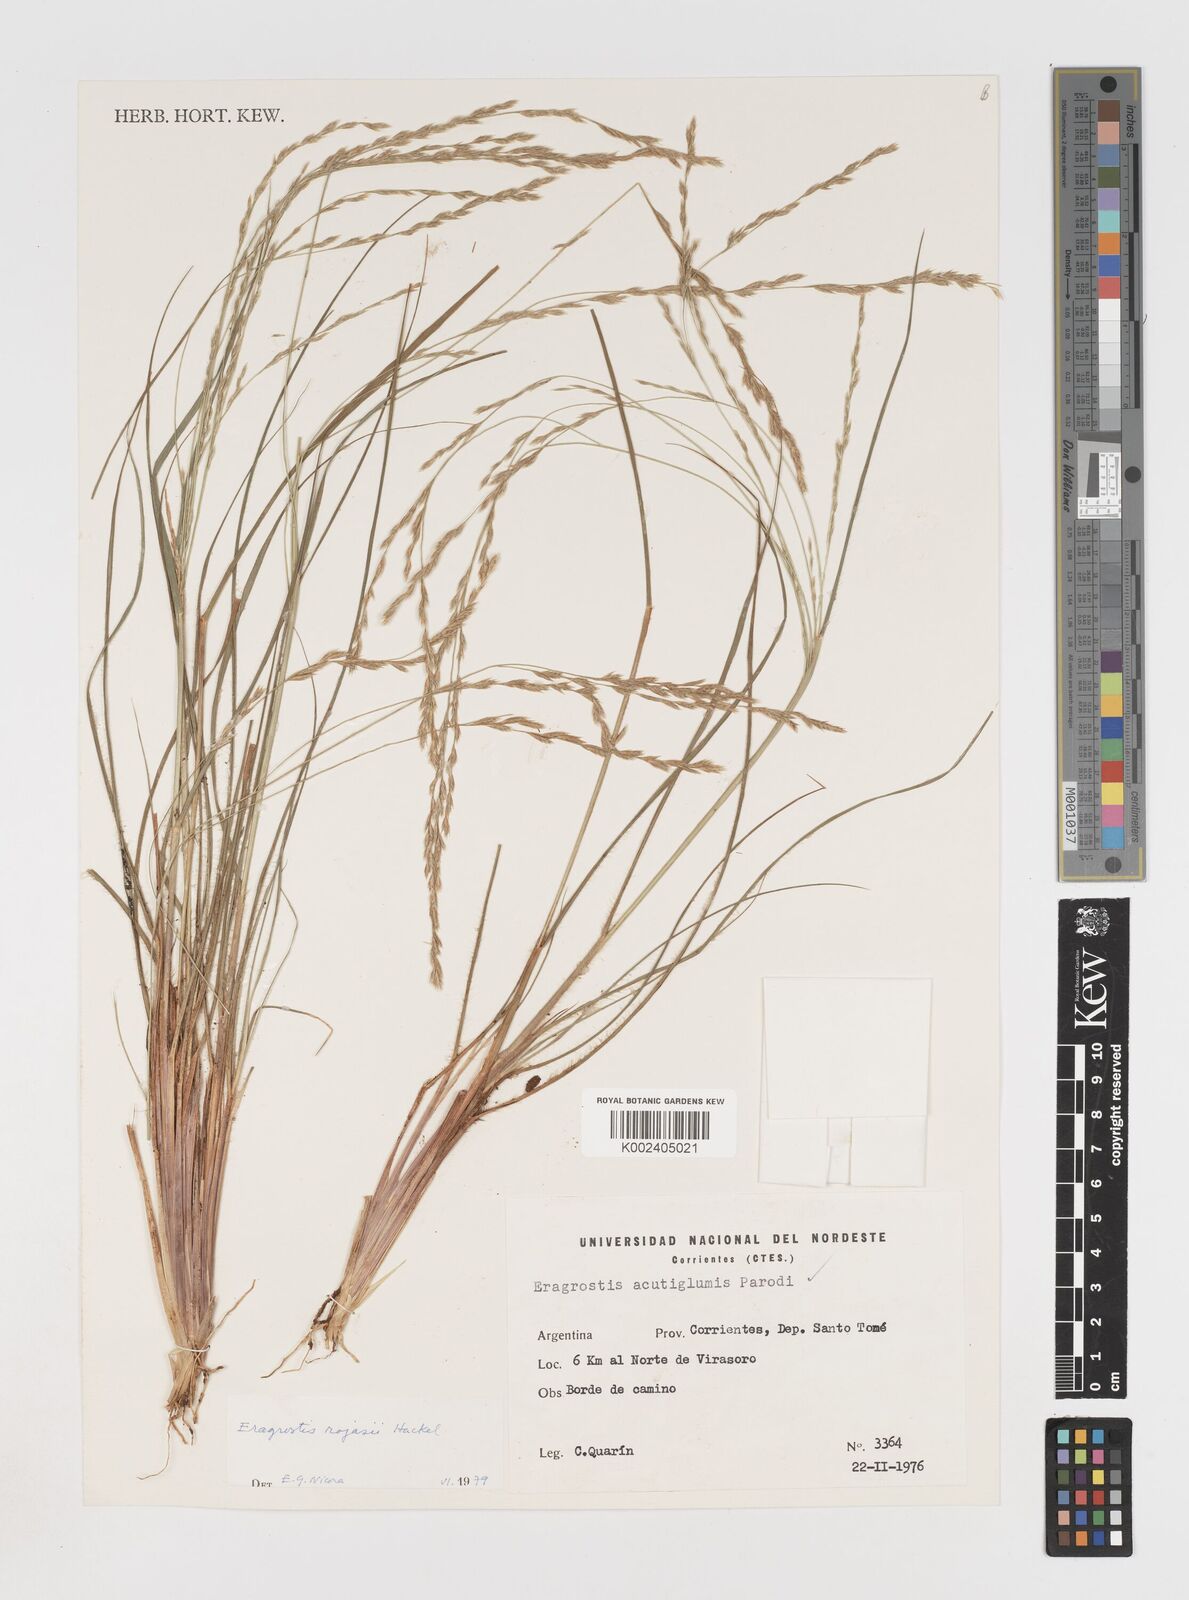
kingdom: Plantae
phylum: Tracheophyta
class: Liliopsida
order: Poales
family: Poaceae
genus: Eragrostis
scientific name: Eragrostis rojasii
